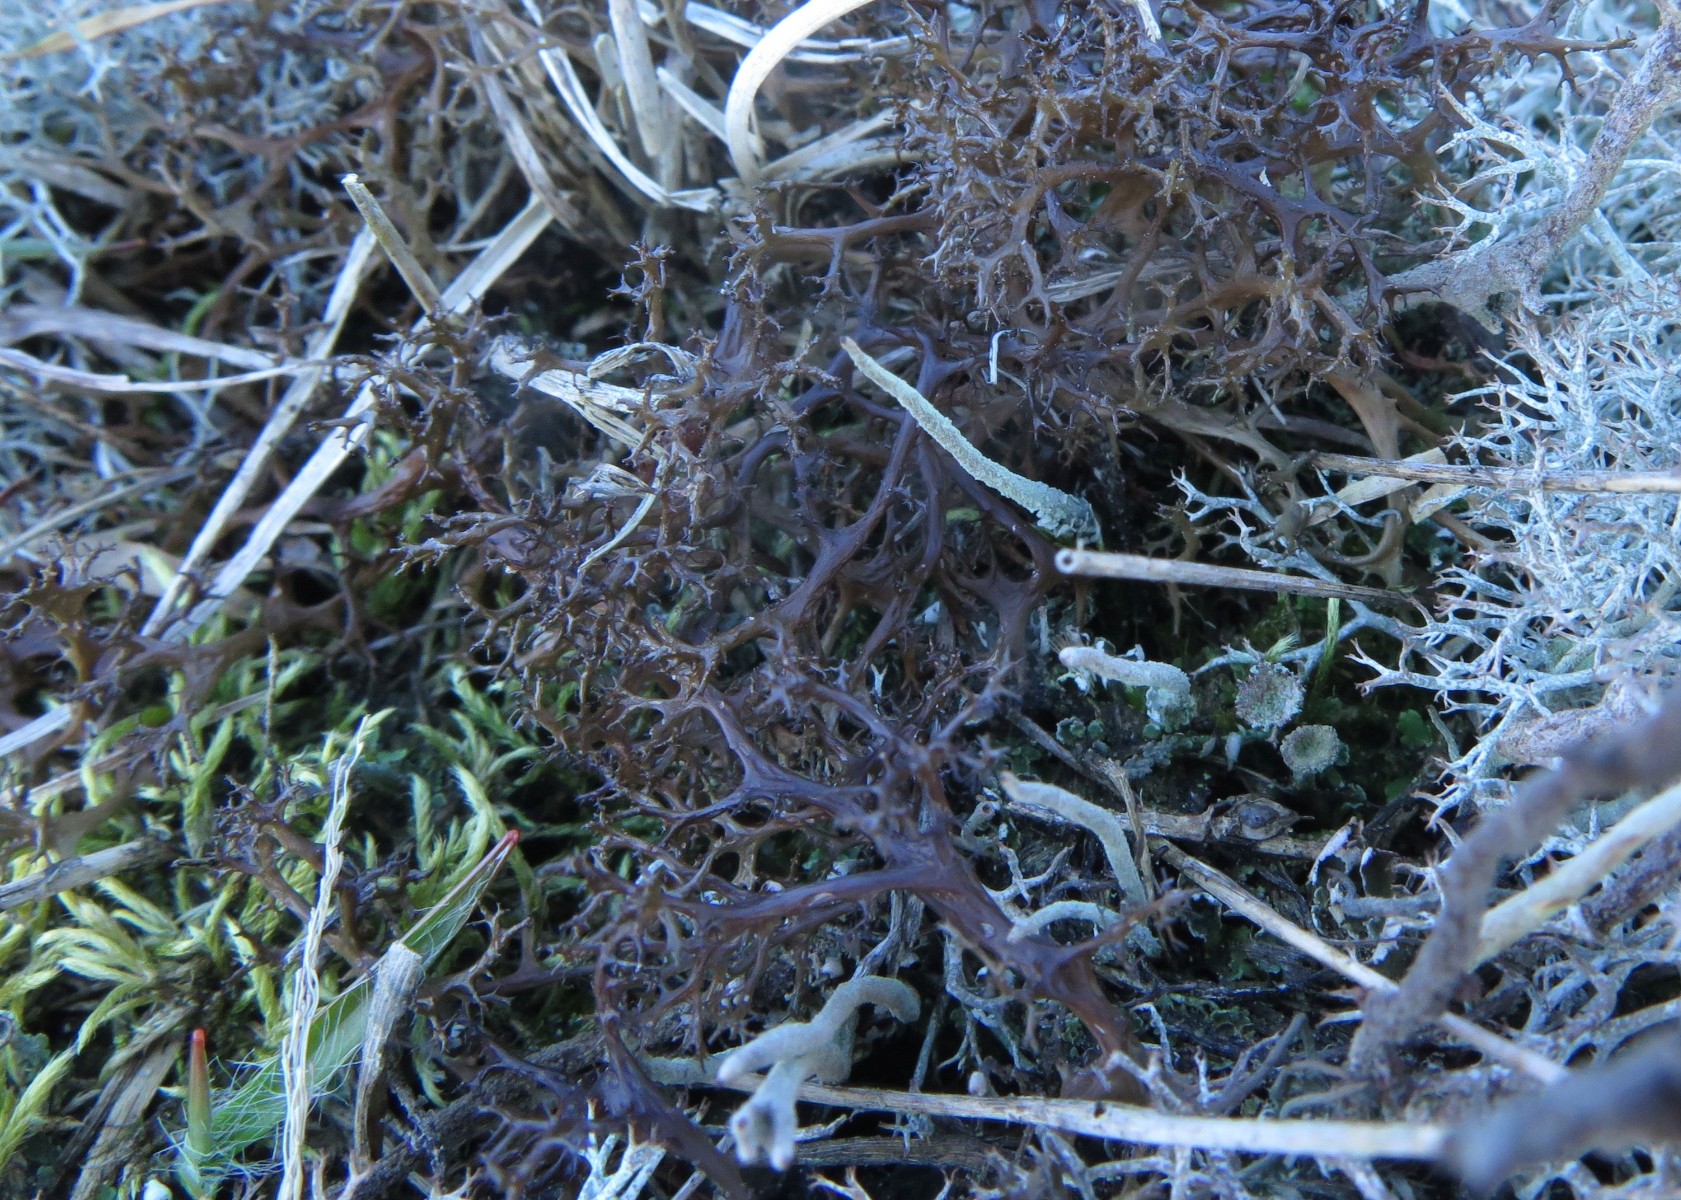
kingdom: Fungi
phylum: Ascomycota
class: Lecanoromycetes
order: Lecanorales
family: Parmeliaceae
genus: Cetraria
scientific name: Cetraria aculeata
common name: grubet tjørnelav
